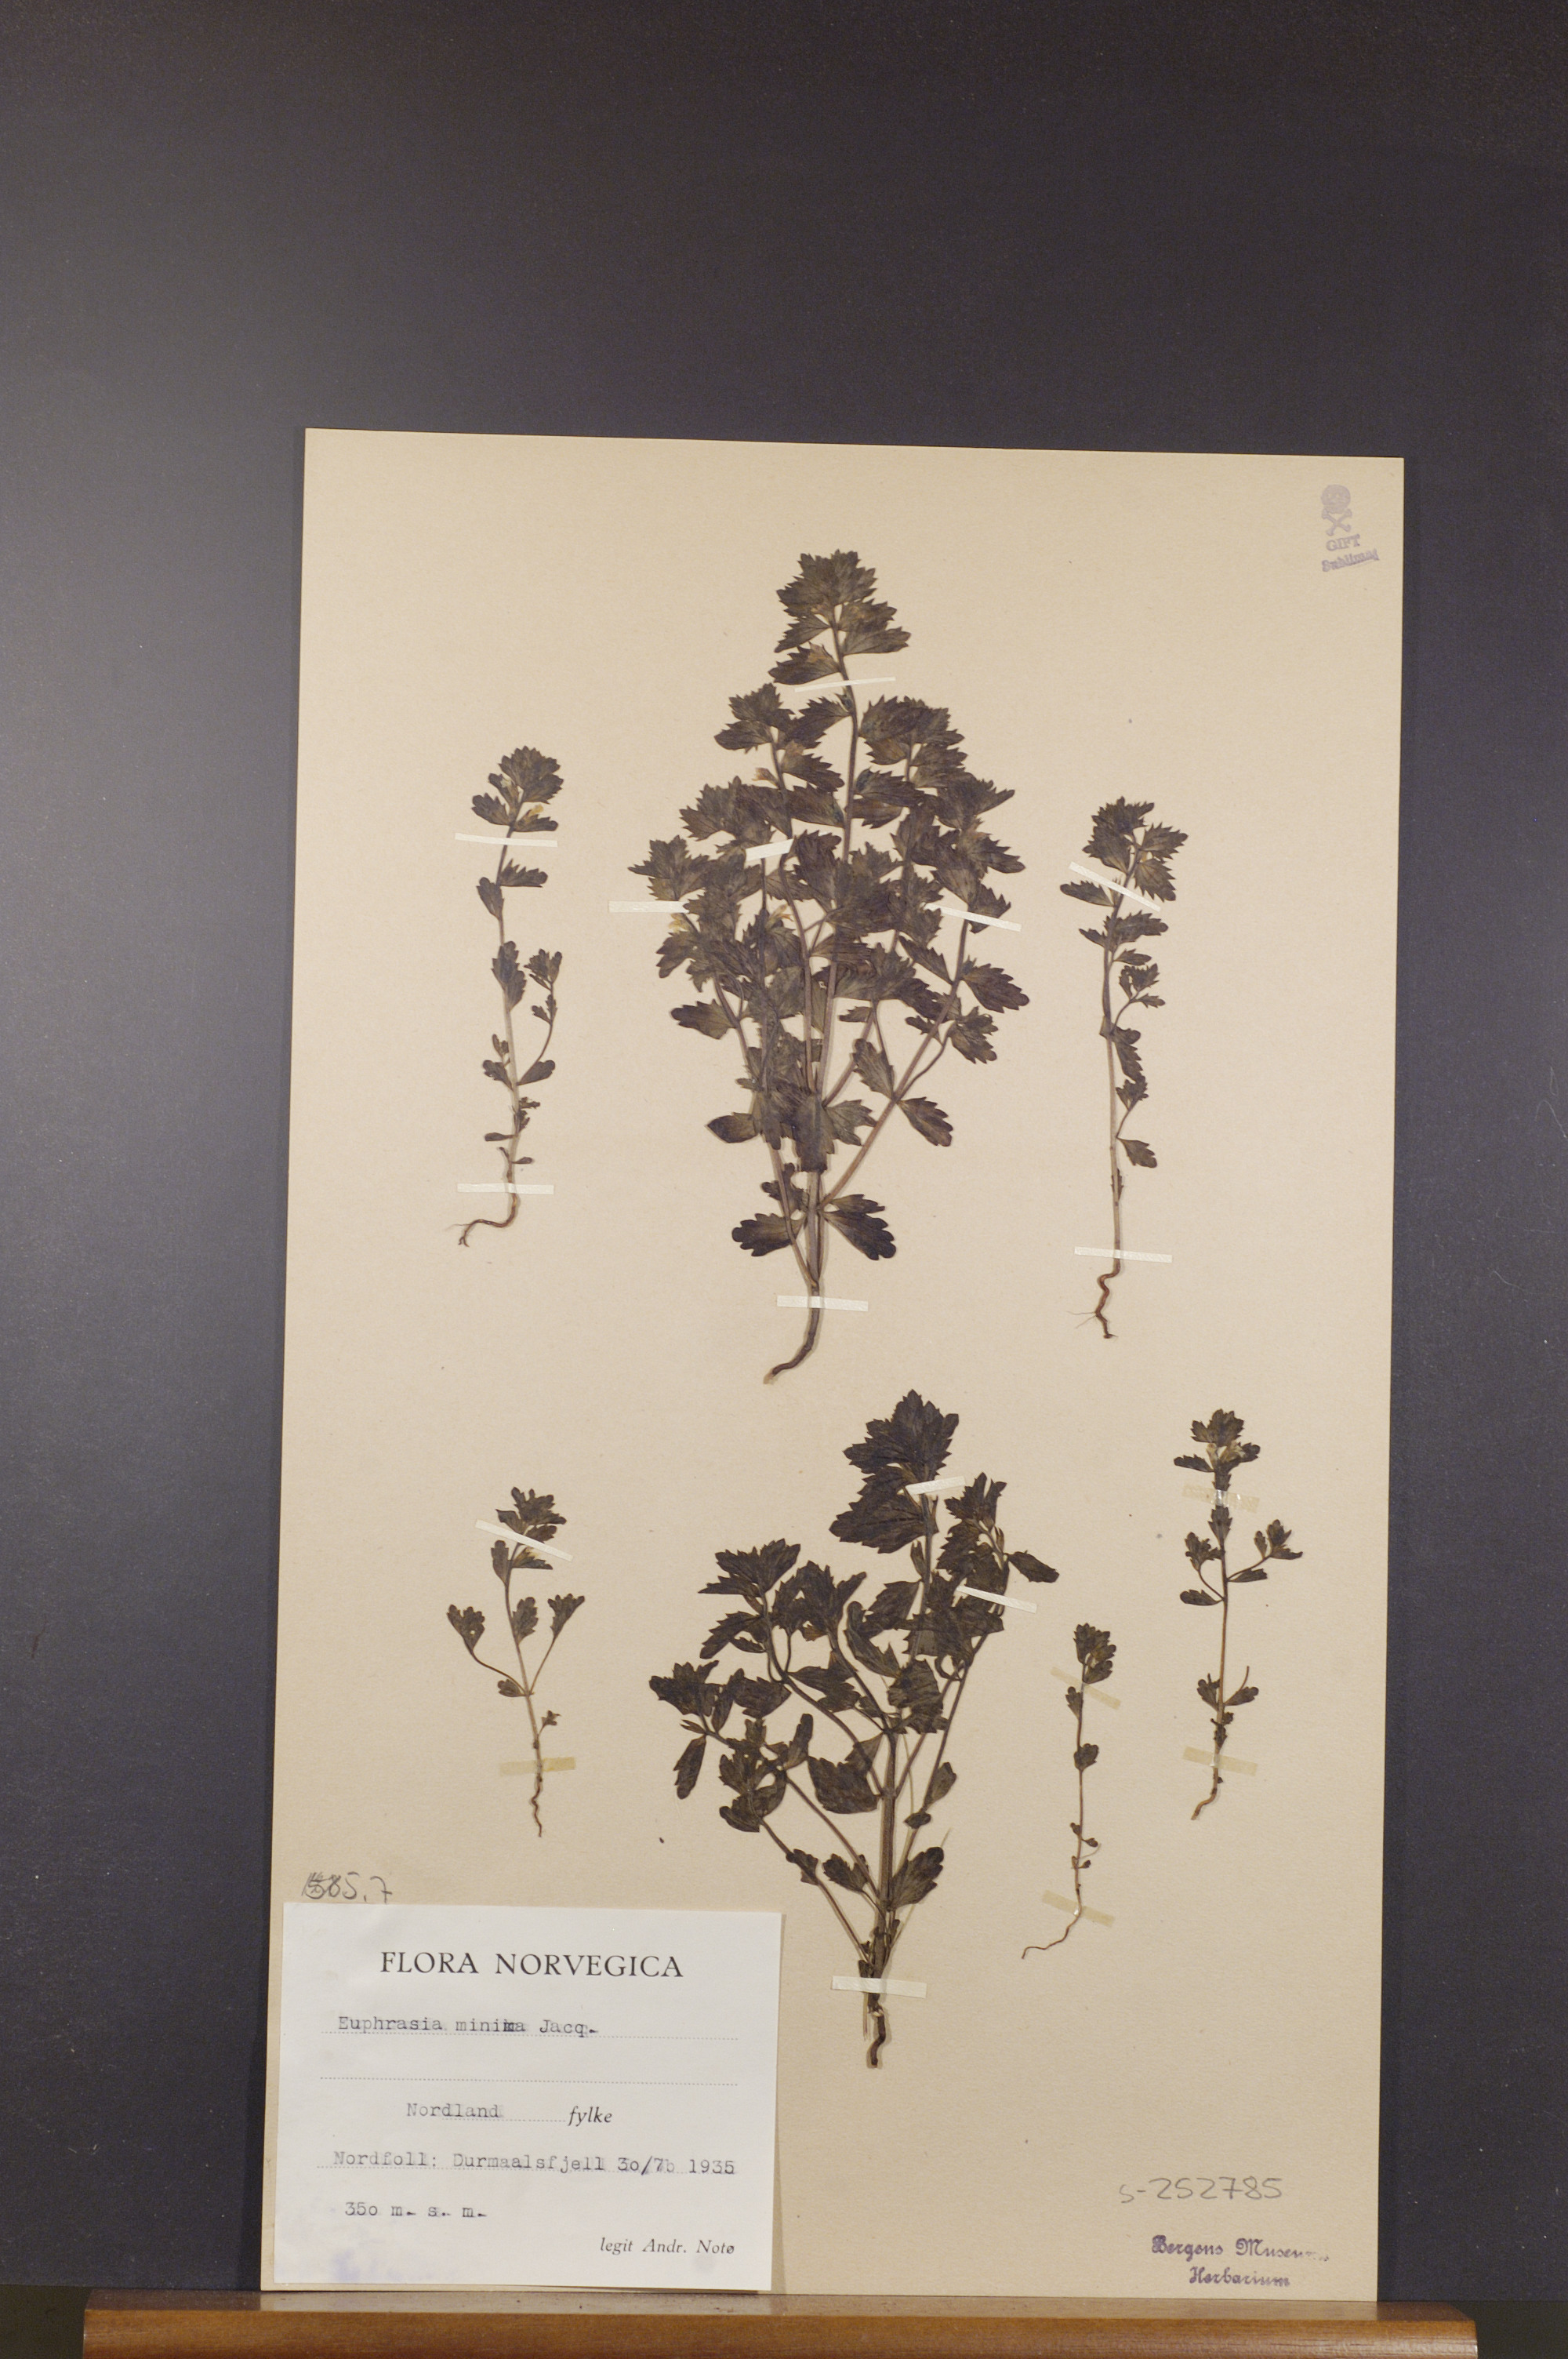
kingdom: Plantae
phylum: Tracheophyta
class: Magnoliopsida
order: Lamiales
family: Orobanchaceae
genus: Euphrasia
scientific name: Euphrasia minima
